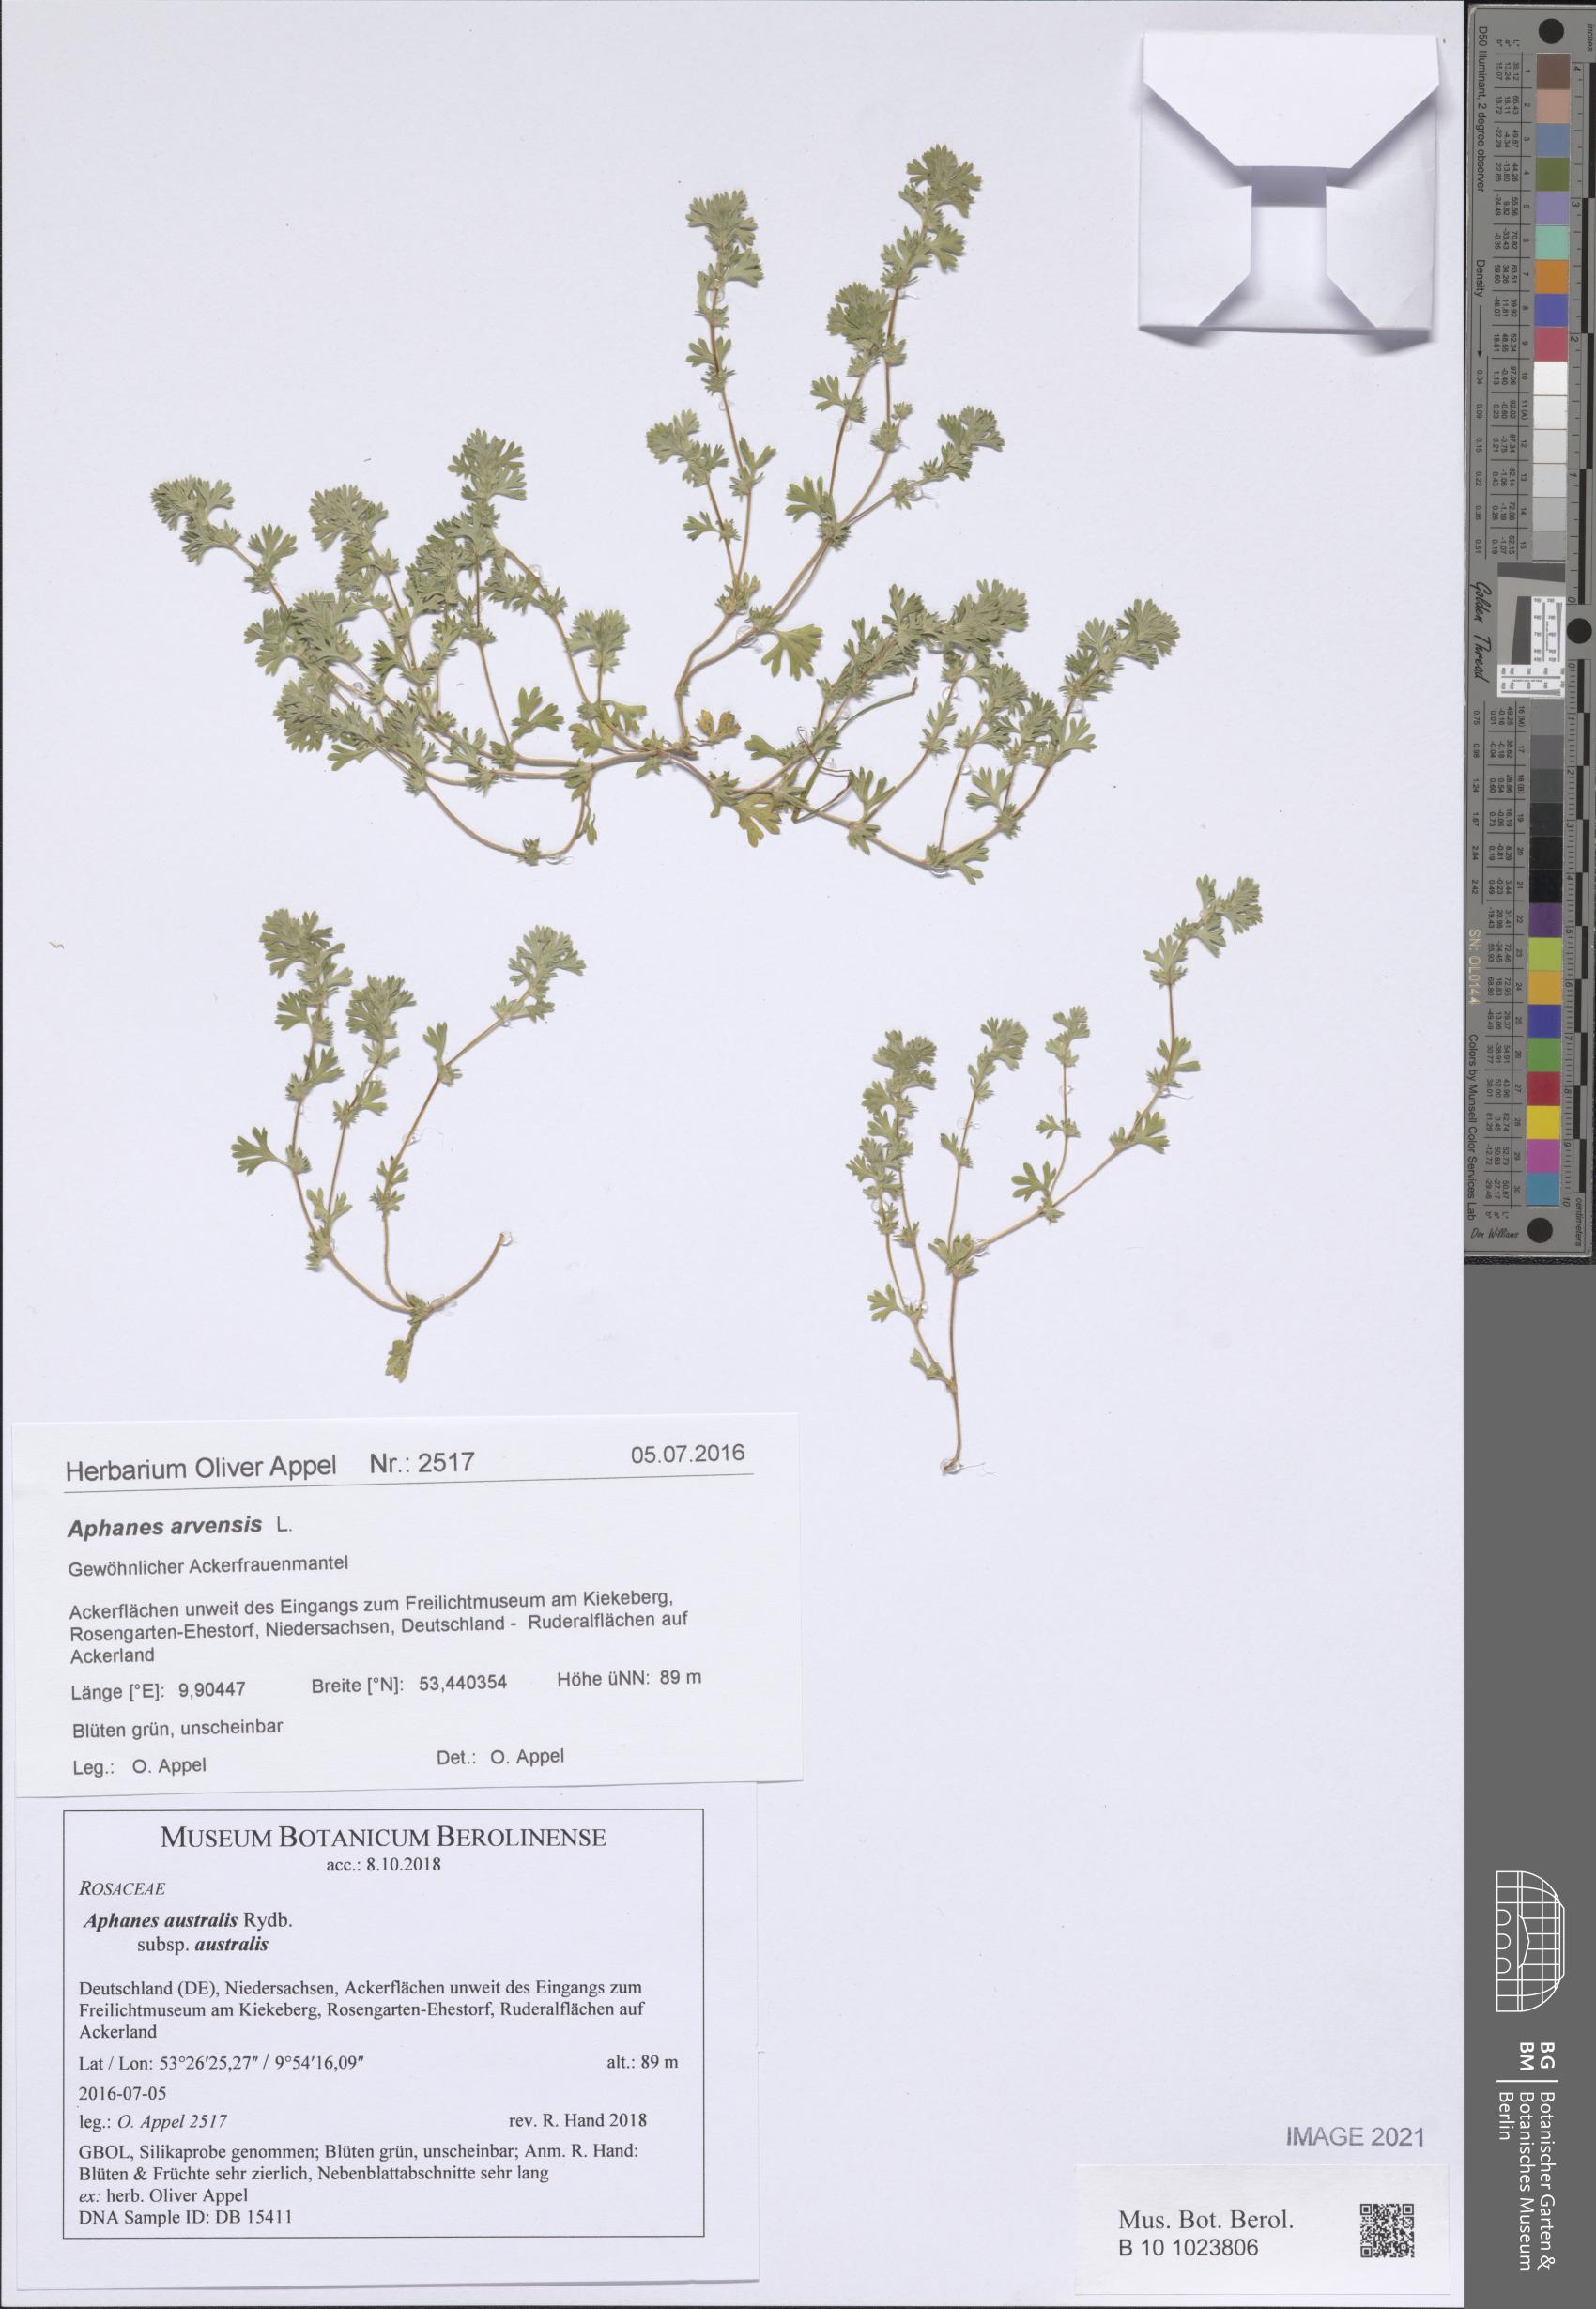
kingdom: Plantae
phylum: Tracheophyta
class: Magnoliopsida
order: Rosales
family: Rosaceae
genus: Aphanes
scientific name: Aphanes australis
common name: Slender parsley-piert
